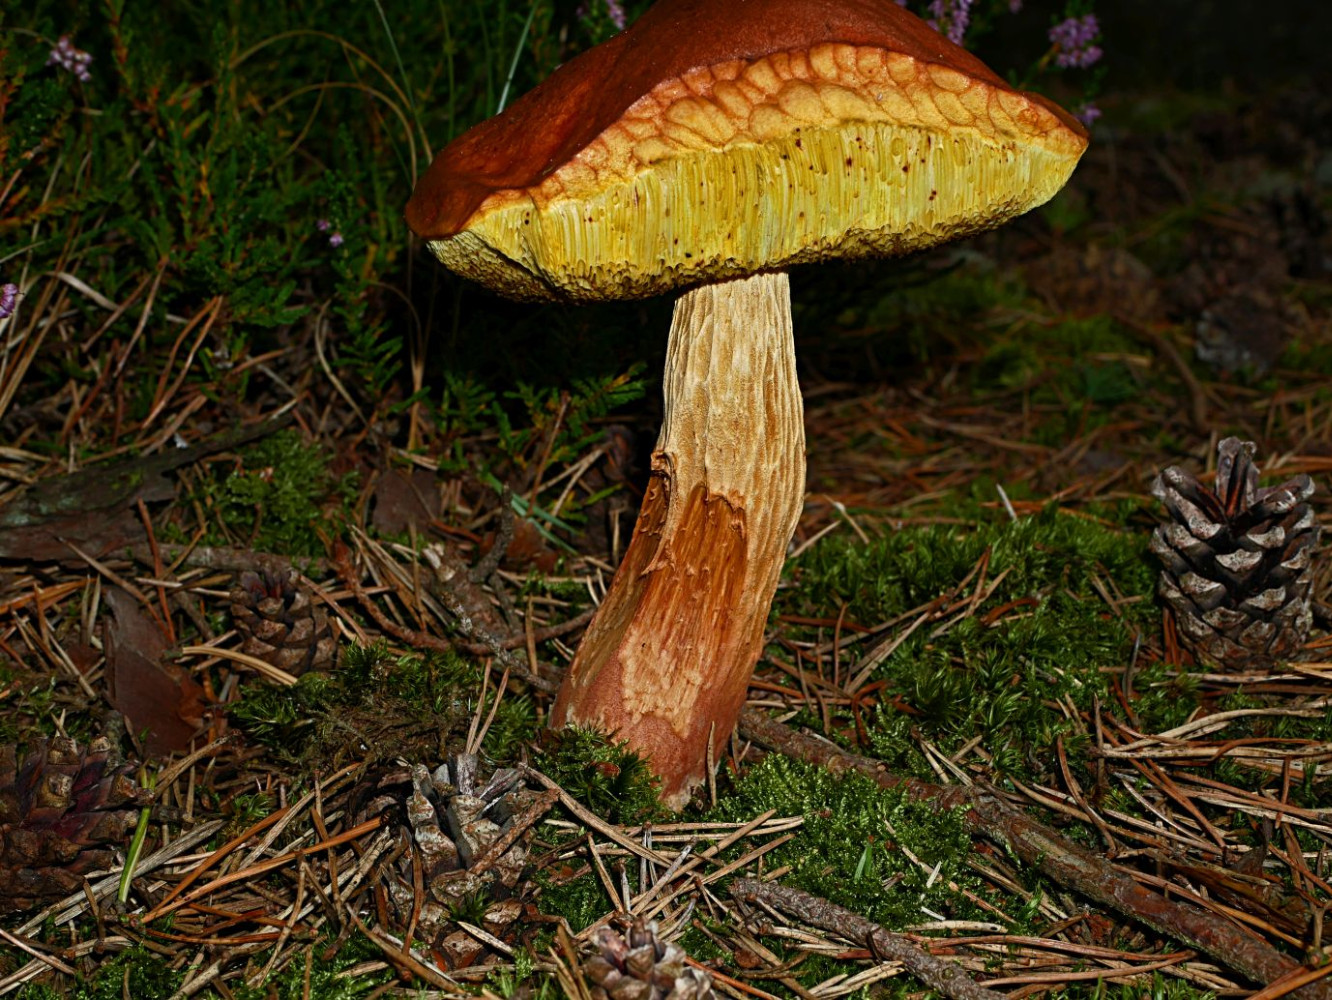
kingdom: Fungi
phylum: Basidiomycota
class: Agaricomycetes
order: Boletales
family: Boletaceae
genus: Aureoboletus
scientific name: Aureoboletus projectellus
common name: ribbestokket rørhat
